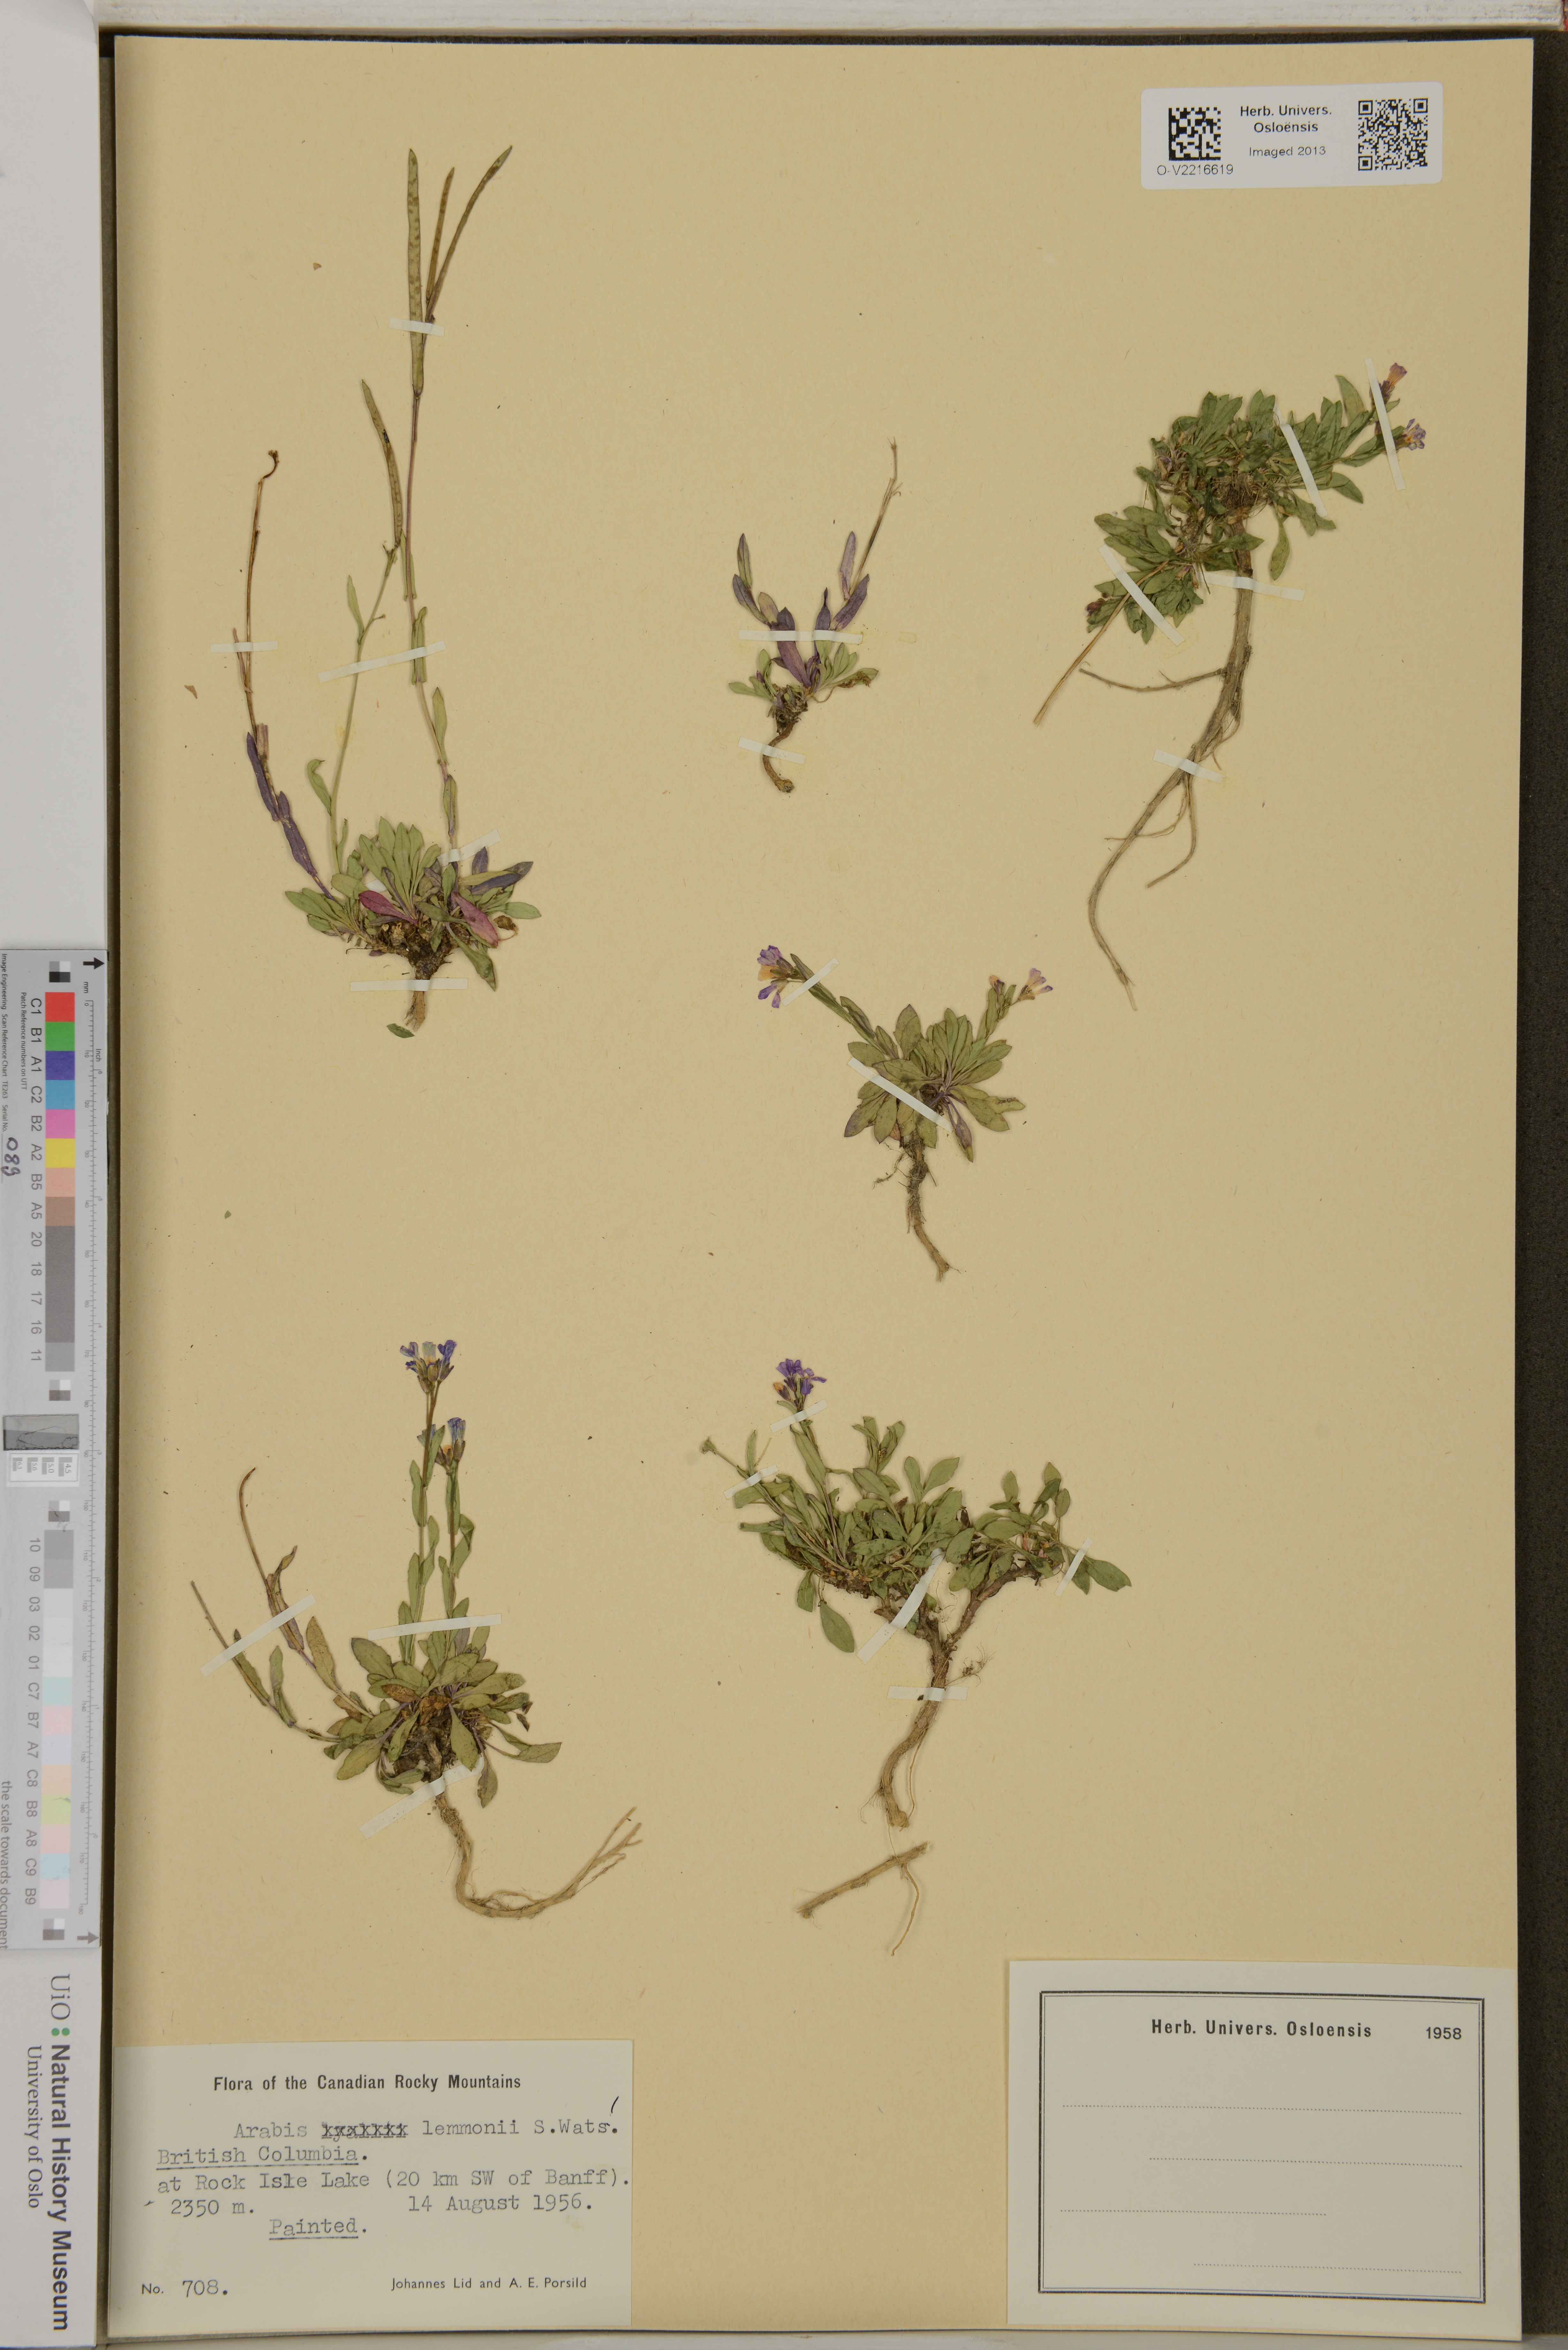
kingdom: Plantae
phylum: Tracheophyta
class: Magnoliopsida
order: Brassicales
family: Brassicaceae
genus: Boechera
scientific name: Boechera lemmonii
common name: Lemmon's rockcress
